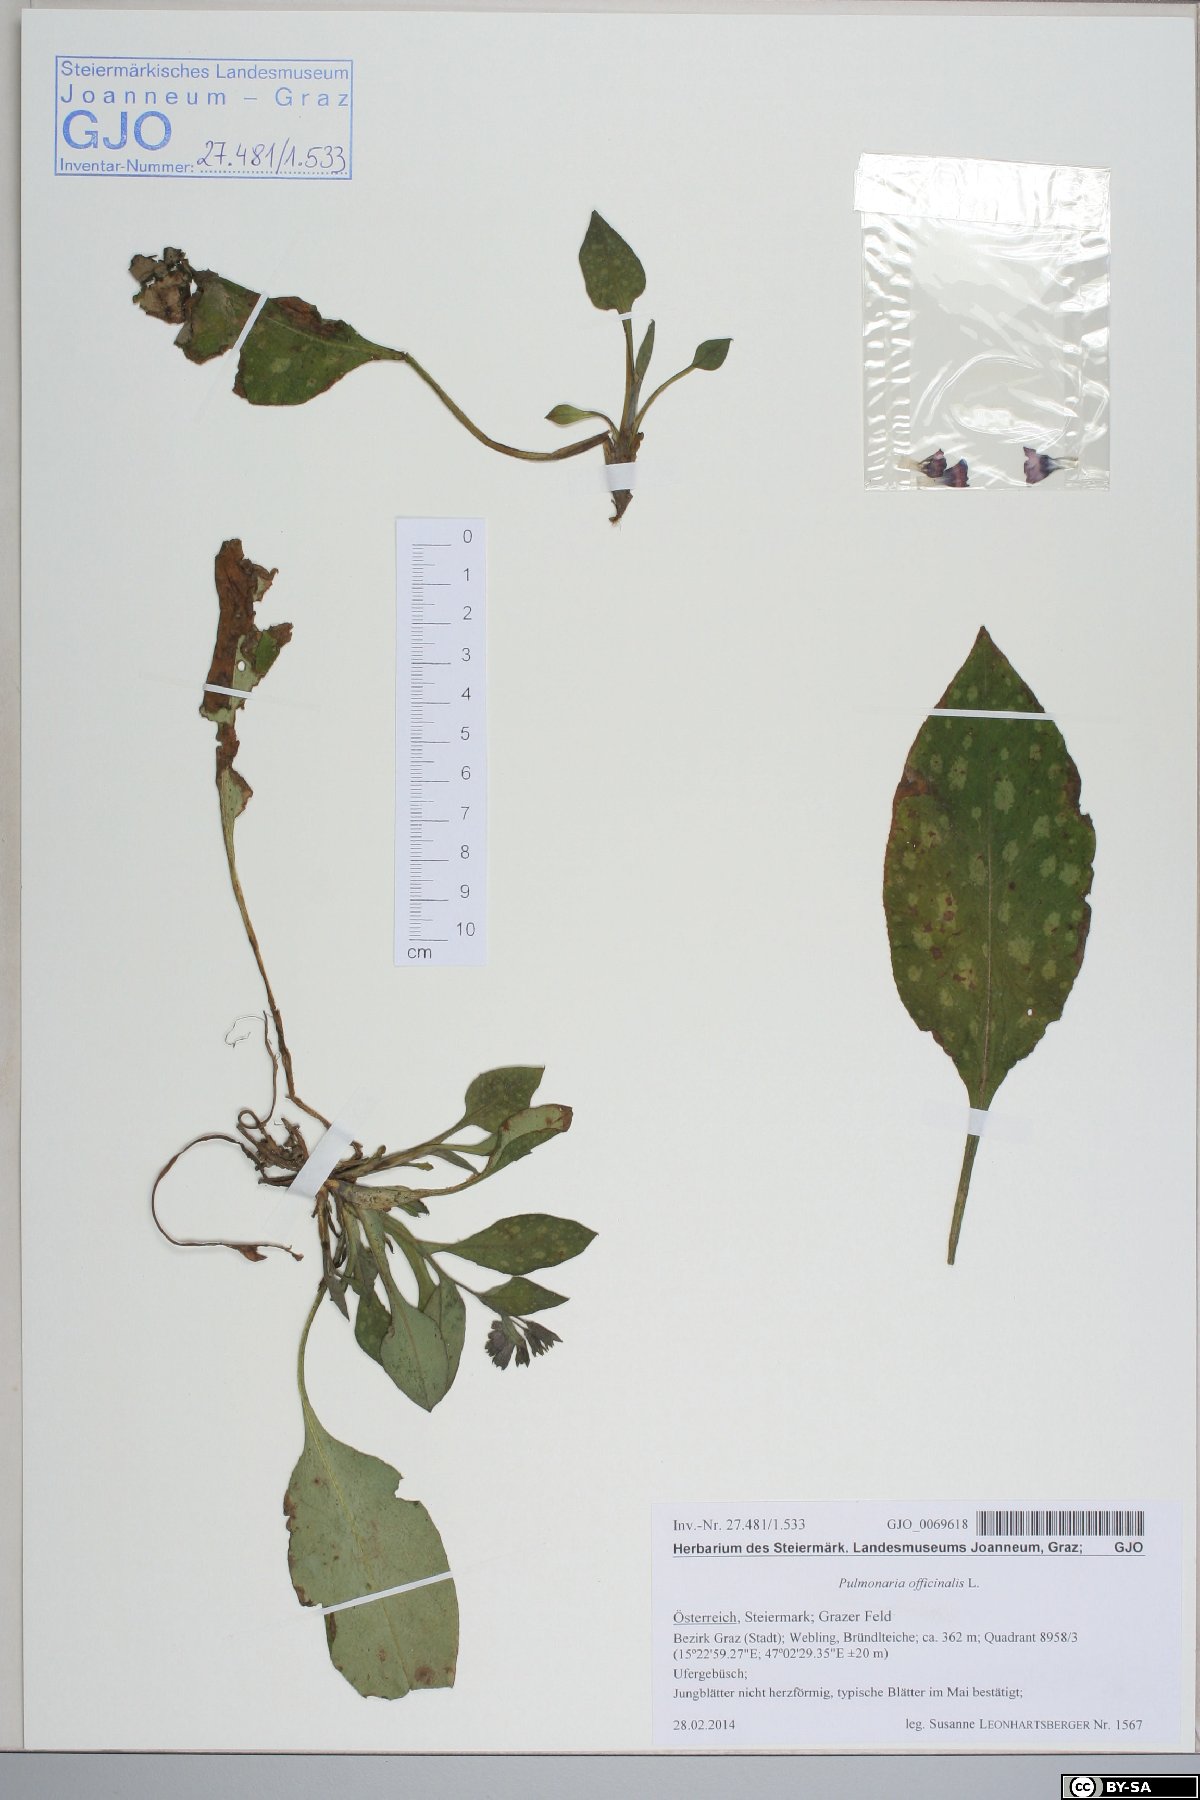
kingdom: Plantae
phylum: Tracheophyta
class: Magnoliopsida
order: Boraginales
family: Boraginaceae
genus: Pulmonaria
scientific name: Pulmonaria officinalis
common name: Lungwort
